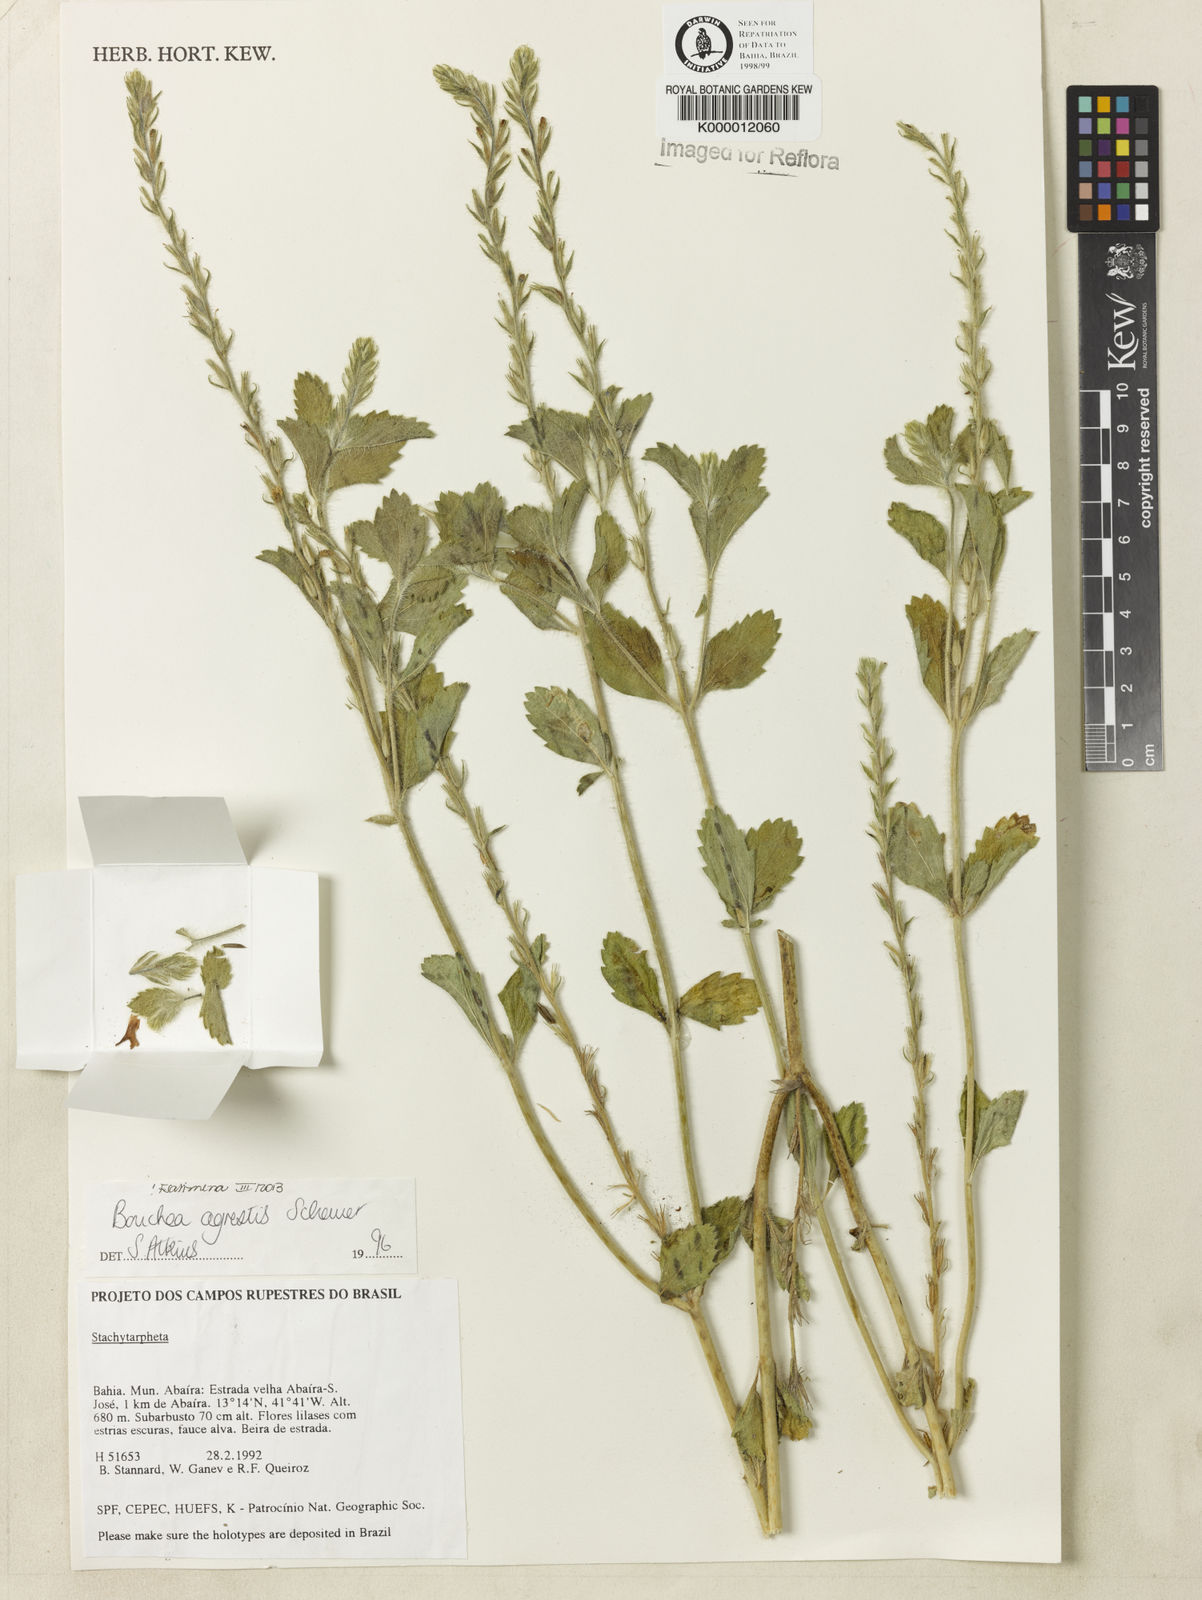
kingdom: Plantae
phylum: Tracheophyta
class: Magnoliopsida
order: Lamiales
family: Verbenaceae
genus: Bouchea
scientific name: Bouchea agrestis
